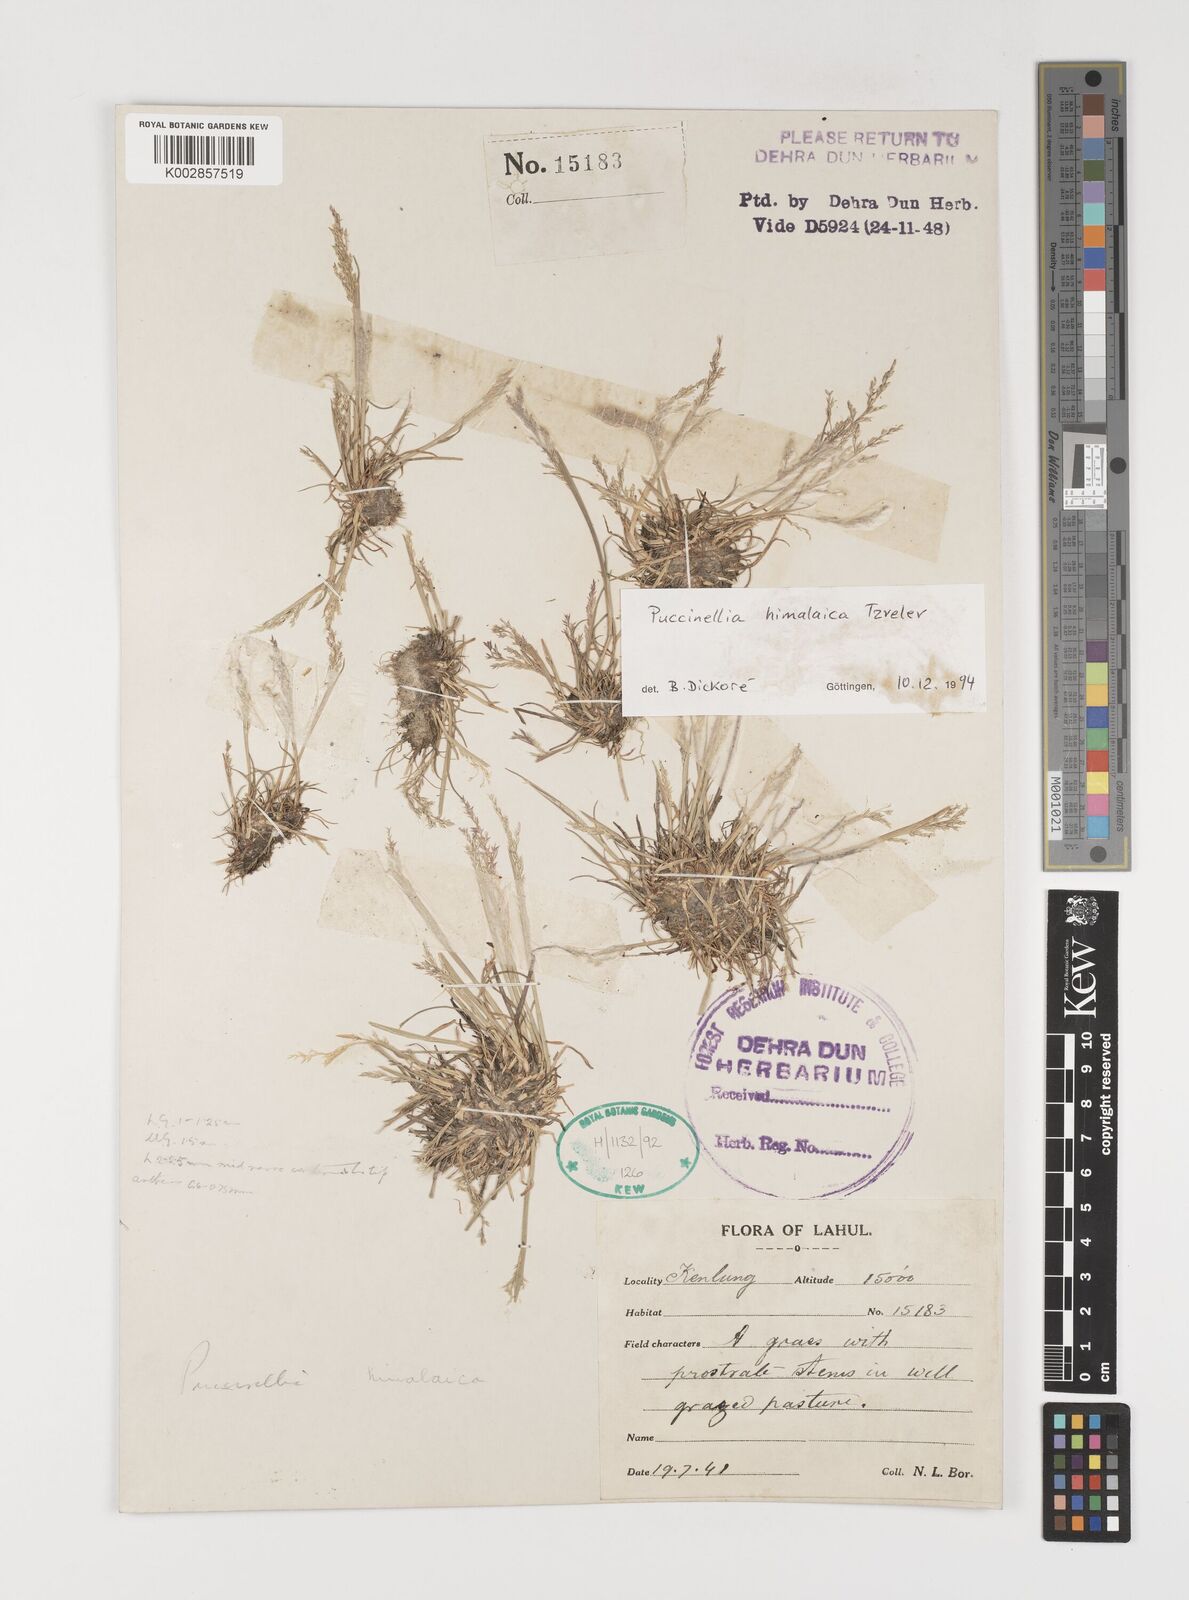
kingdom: Plantae
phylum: Tracheophyta
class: Liliopsida
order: Poales
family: Poaceae
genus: Puccinellia
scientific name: Puccinellia himalaica
